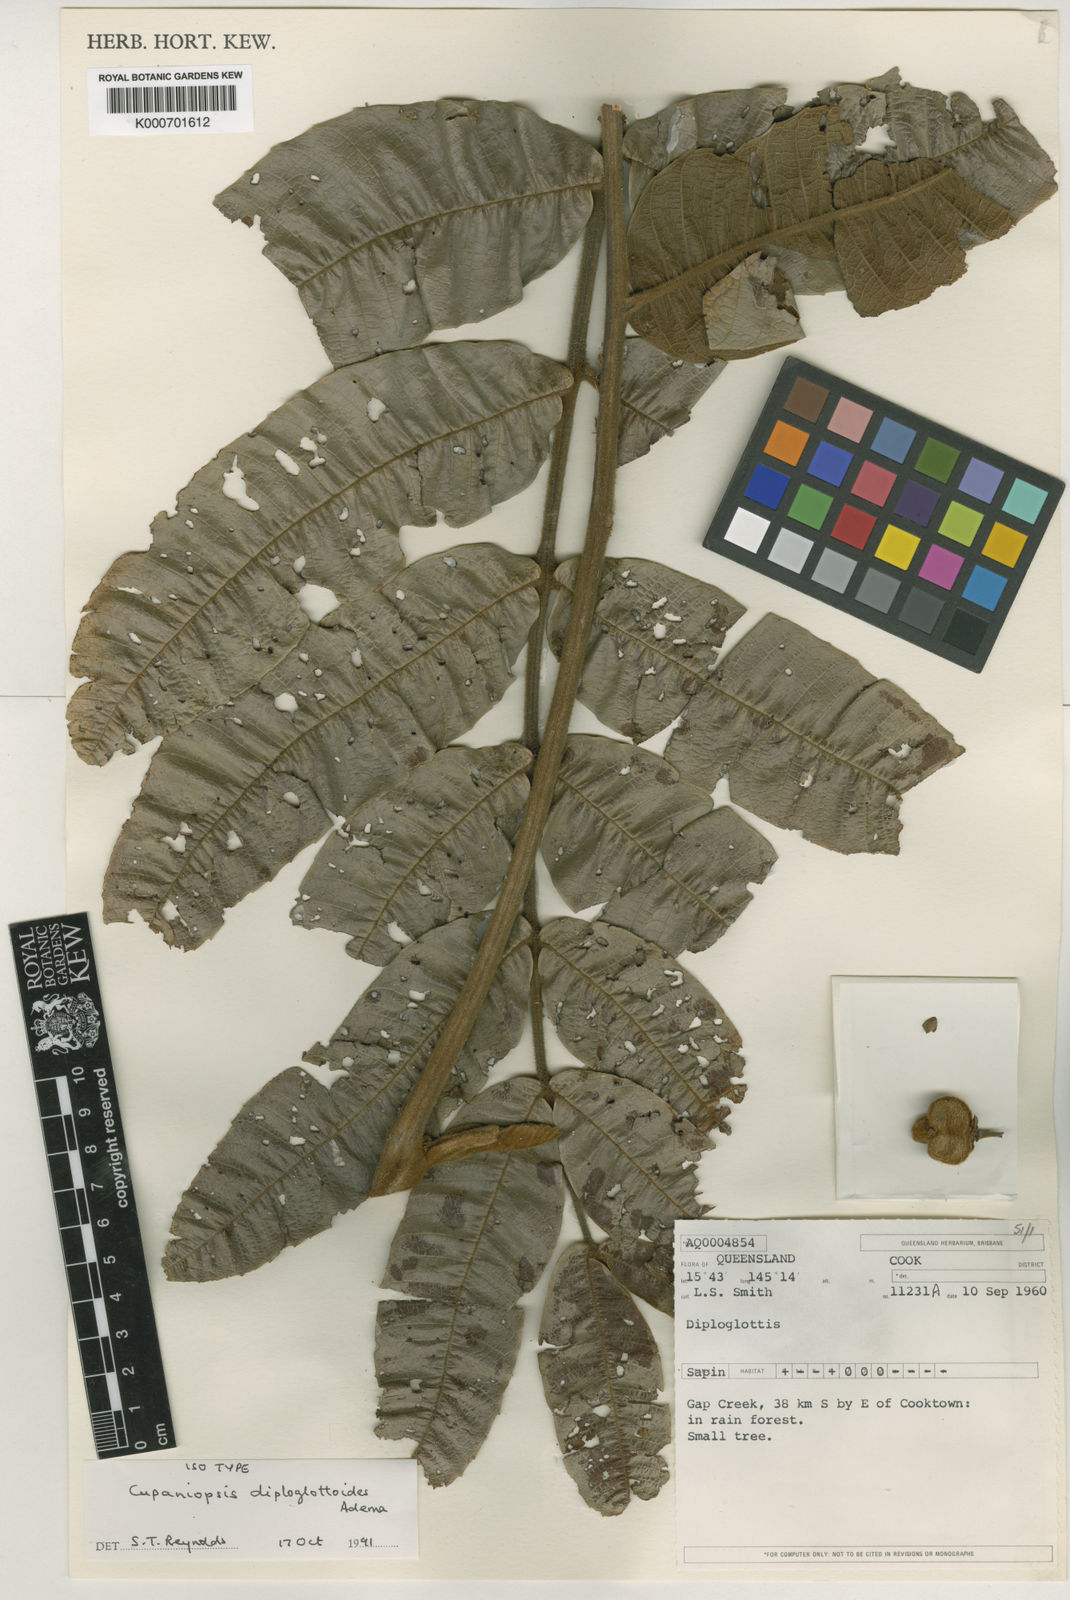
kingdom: Plantae
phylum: Tracheophyta
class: Magnoliopsida
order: Sapindales
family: Sapindaceae
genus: Cupaniopsis
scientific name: Cupaniopsis diploglottoides
